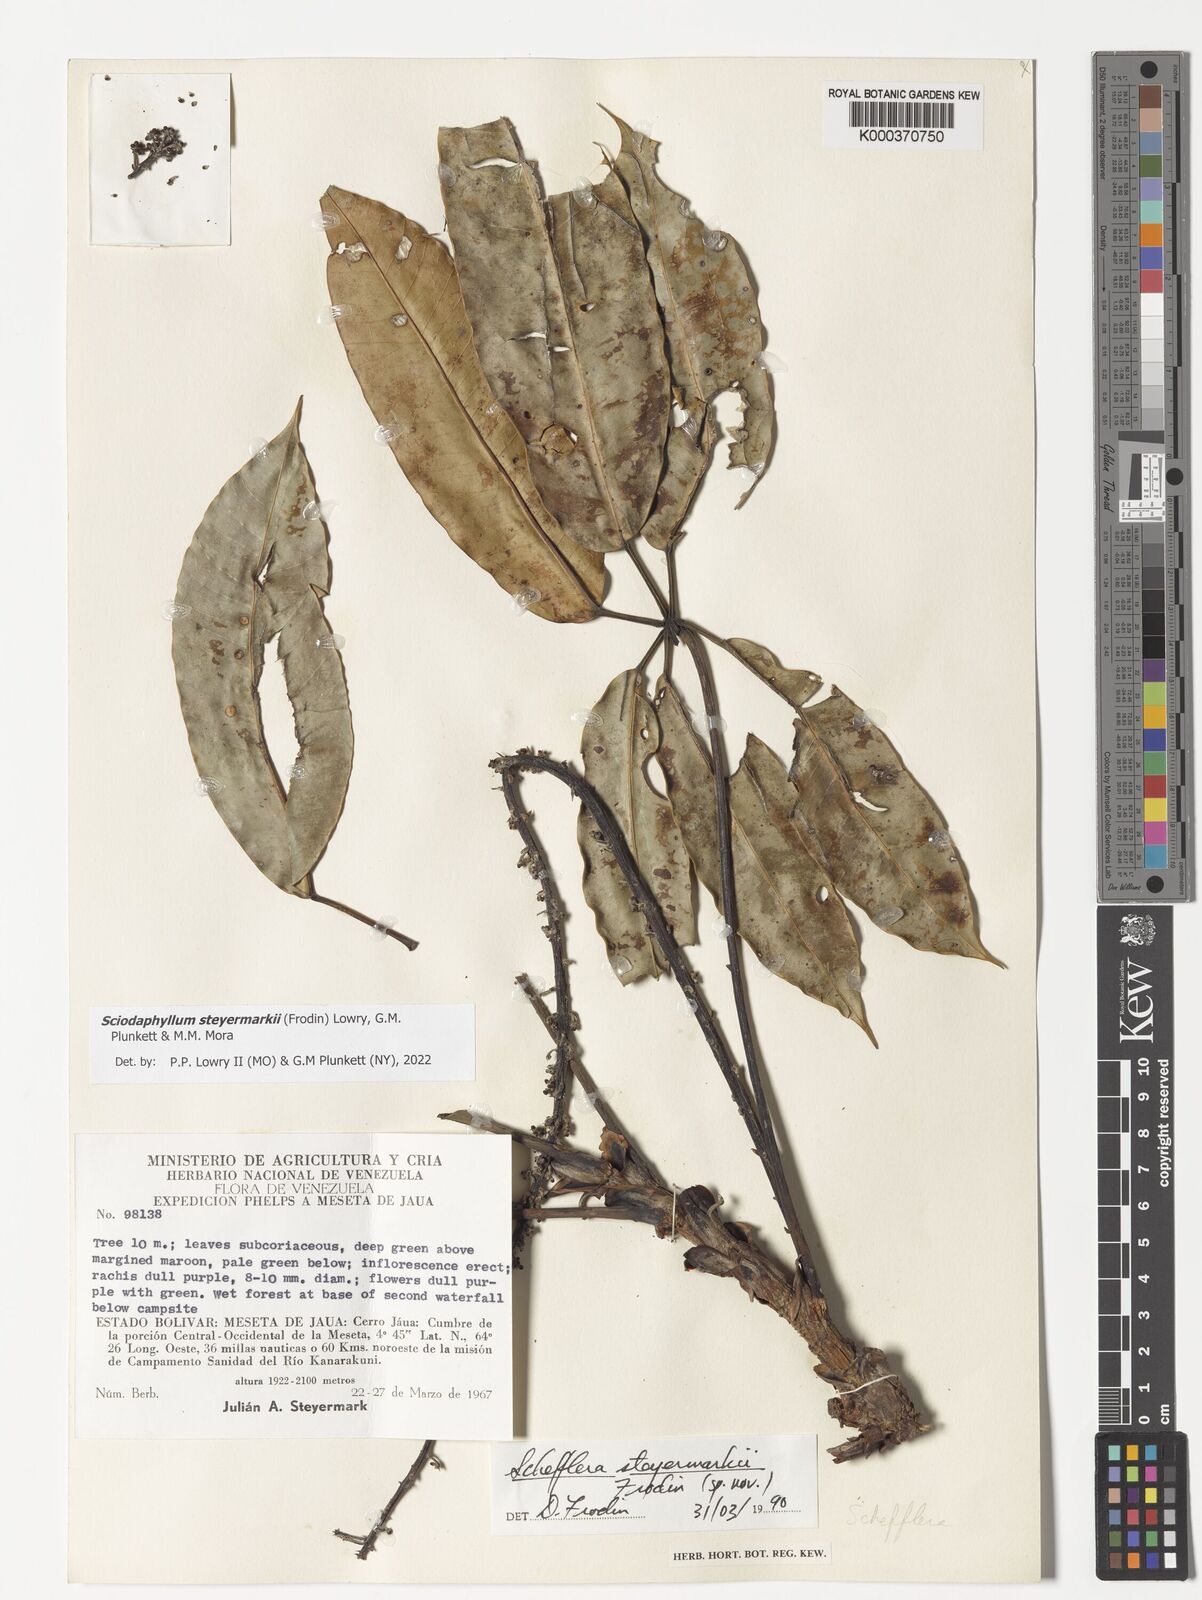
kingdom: Plantae
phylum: Tracheophyta
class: Magnoliopsida
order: Apiales
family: Araliaceae
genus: Sciodaphyllum
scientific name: Sciodaphyllum
